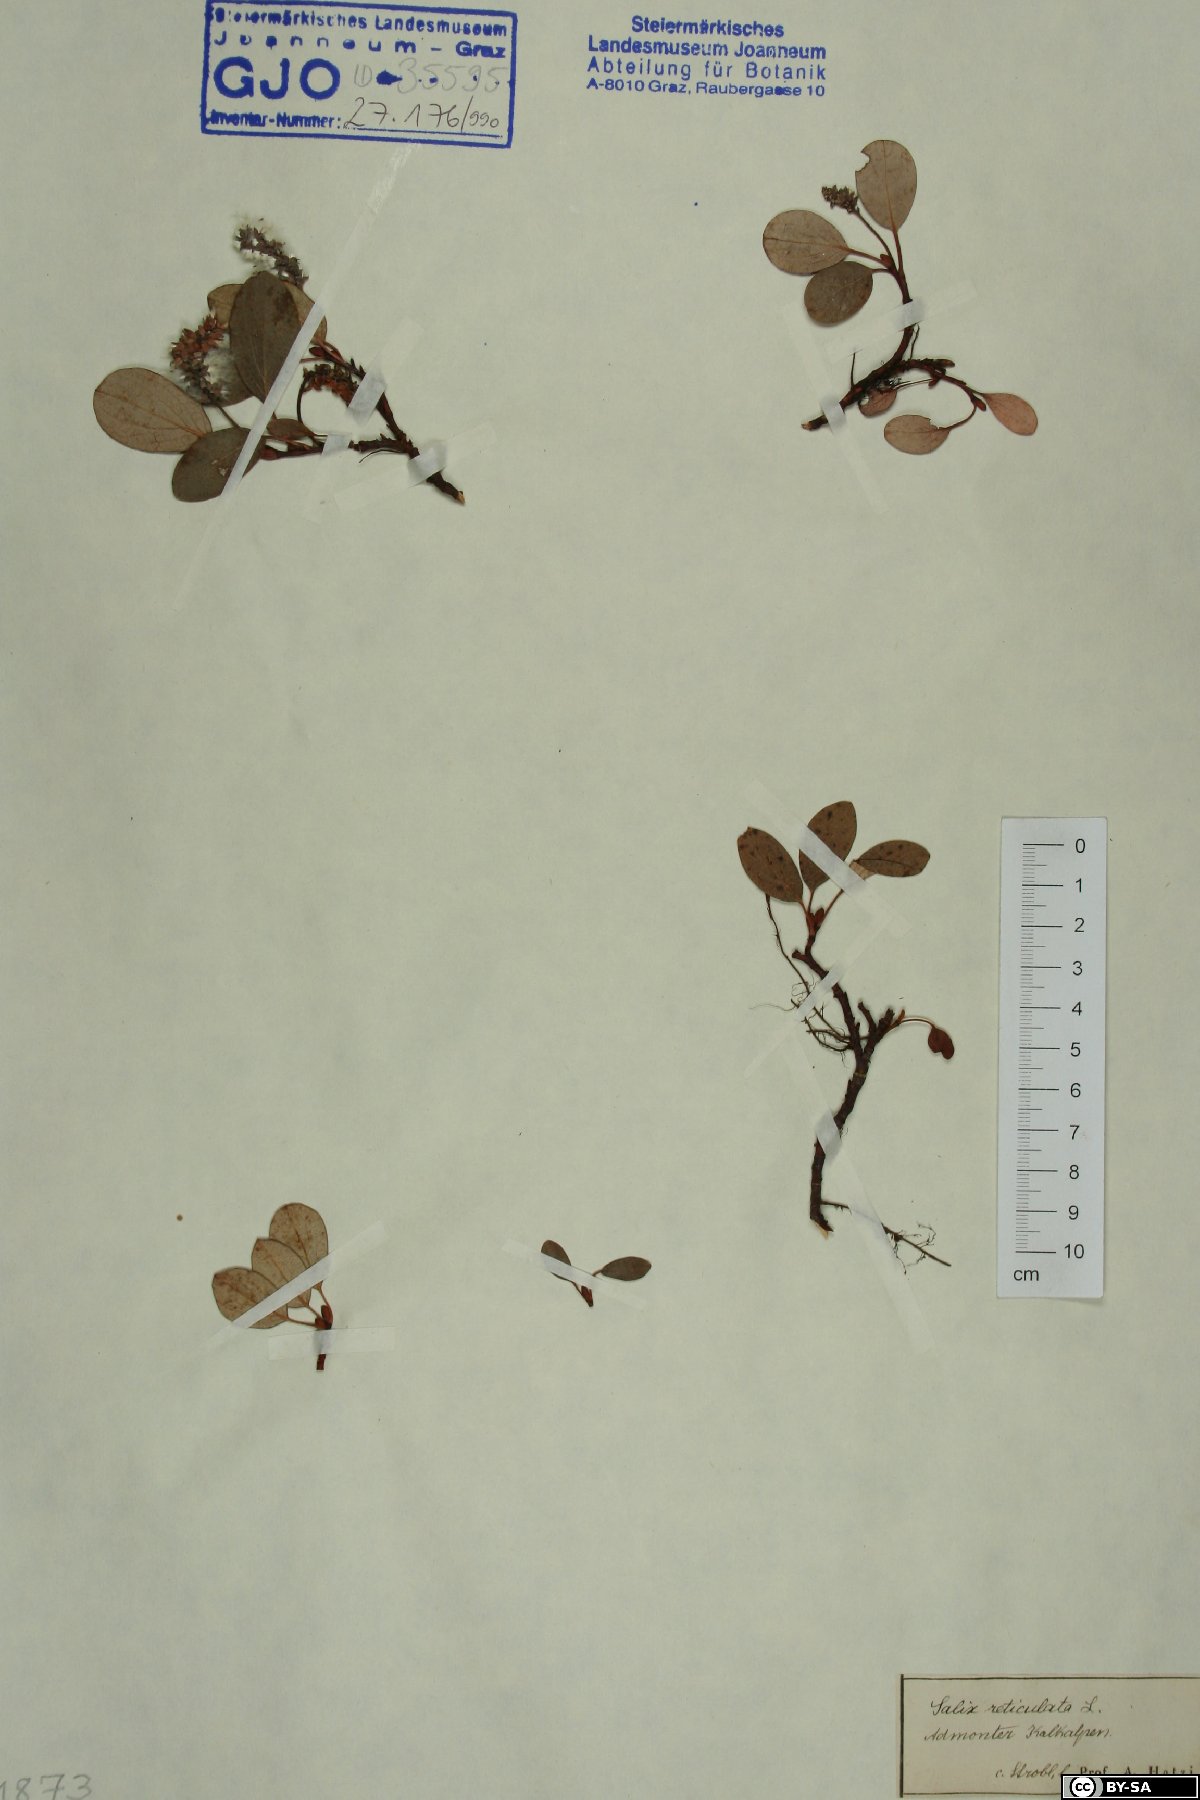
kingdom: Plantae
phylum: Tracheophyta
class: Magnoliopsida
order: Malpighiales
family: Salicaceae
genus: Salix
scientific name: Salix reticulata
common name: Net-leaved willow
